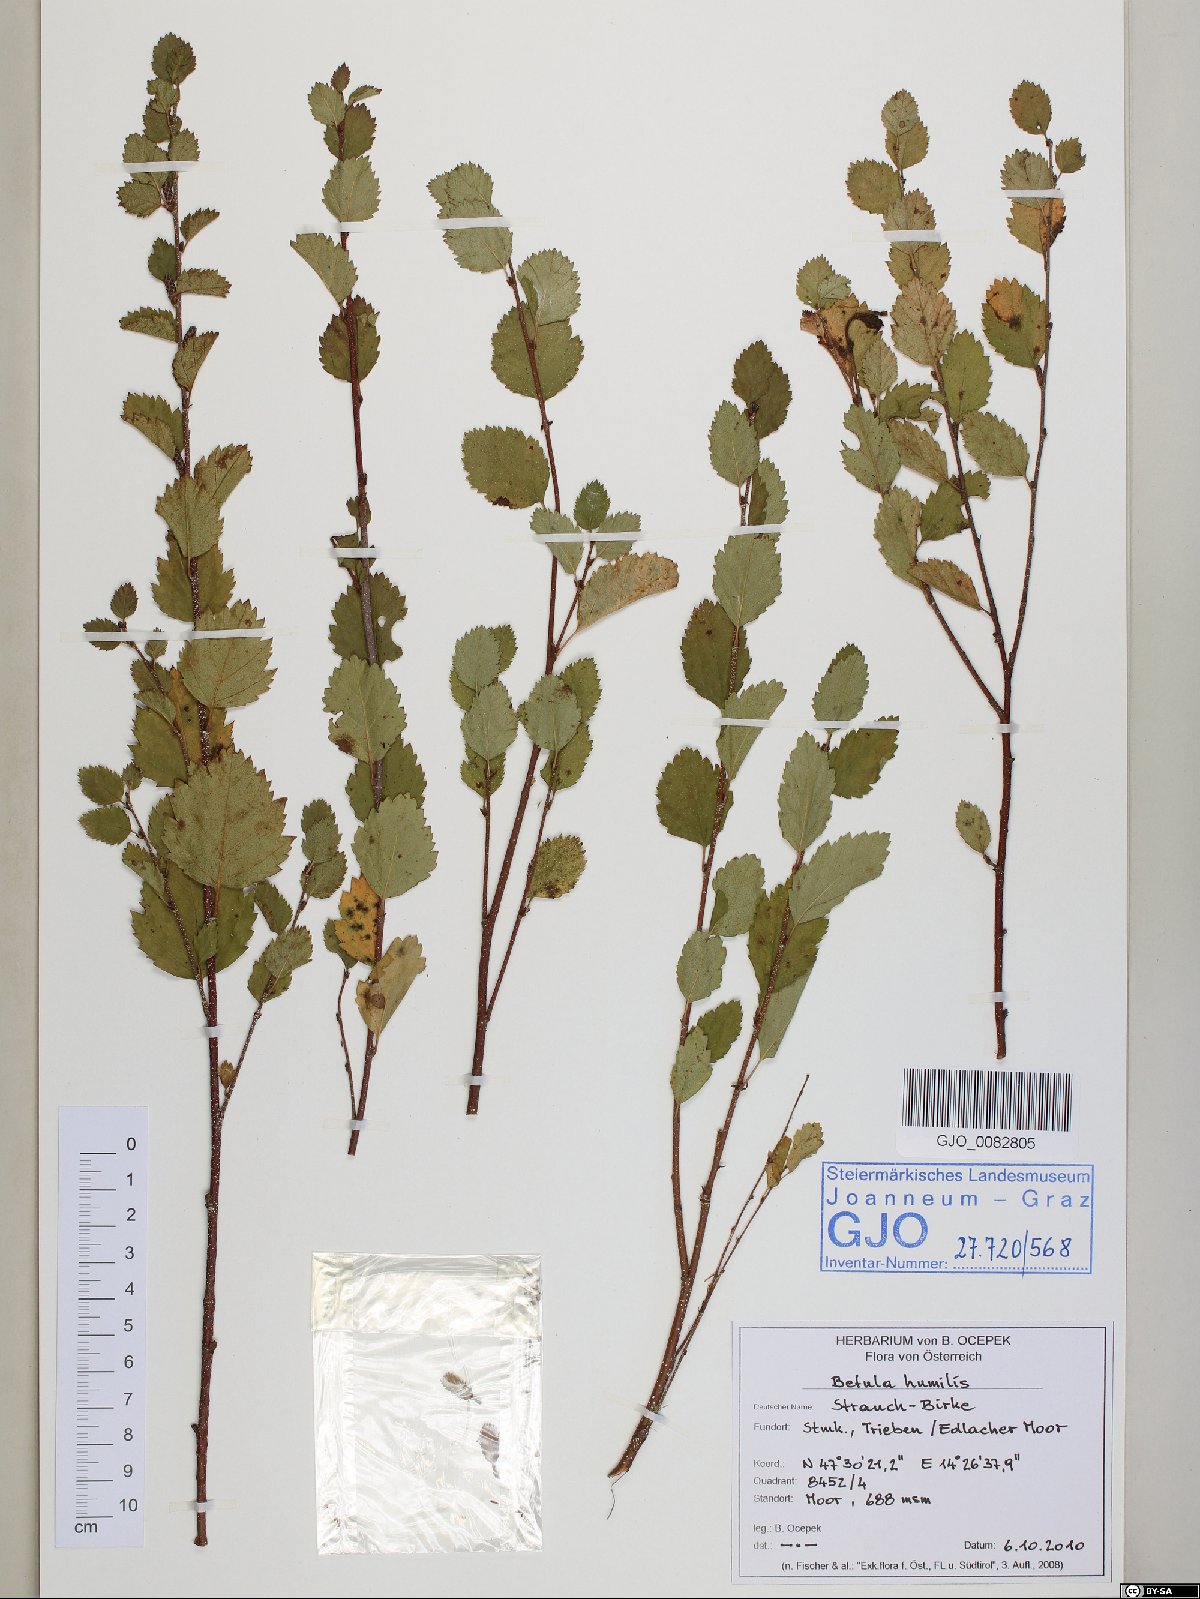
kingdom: Plantae
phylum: Tracheophyta
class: Magnoliopsida
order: Fagales
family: Betulaceae
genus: Betula
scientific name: Betula humilis
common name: Shrubby birch
